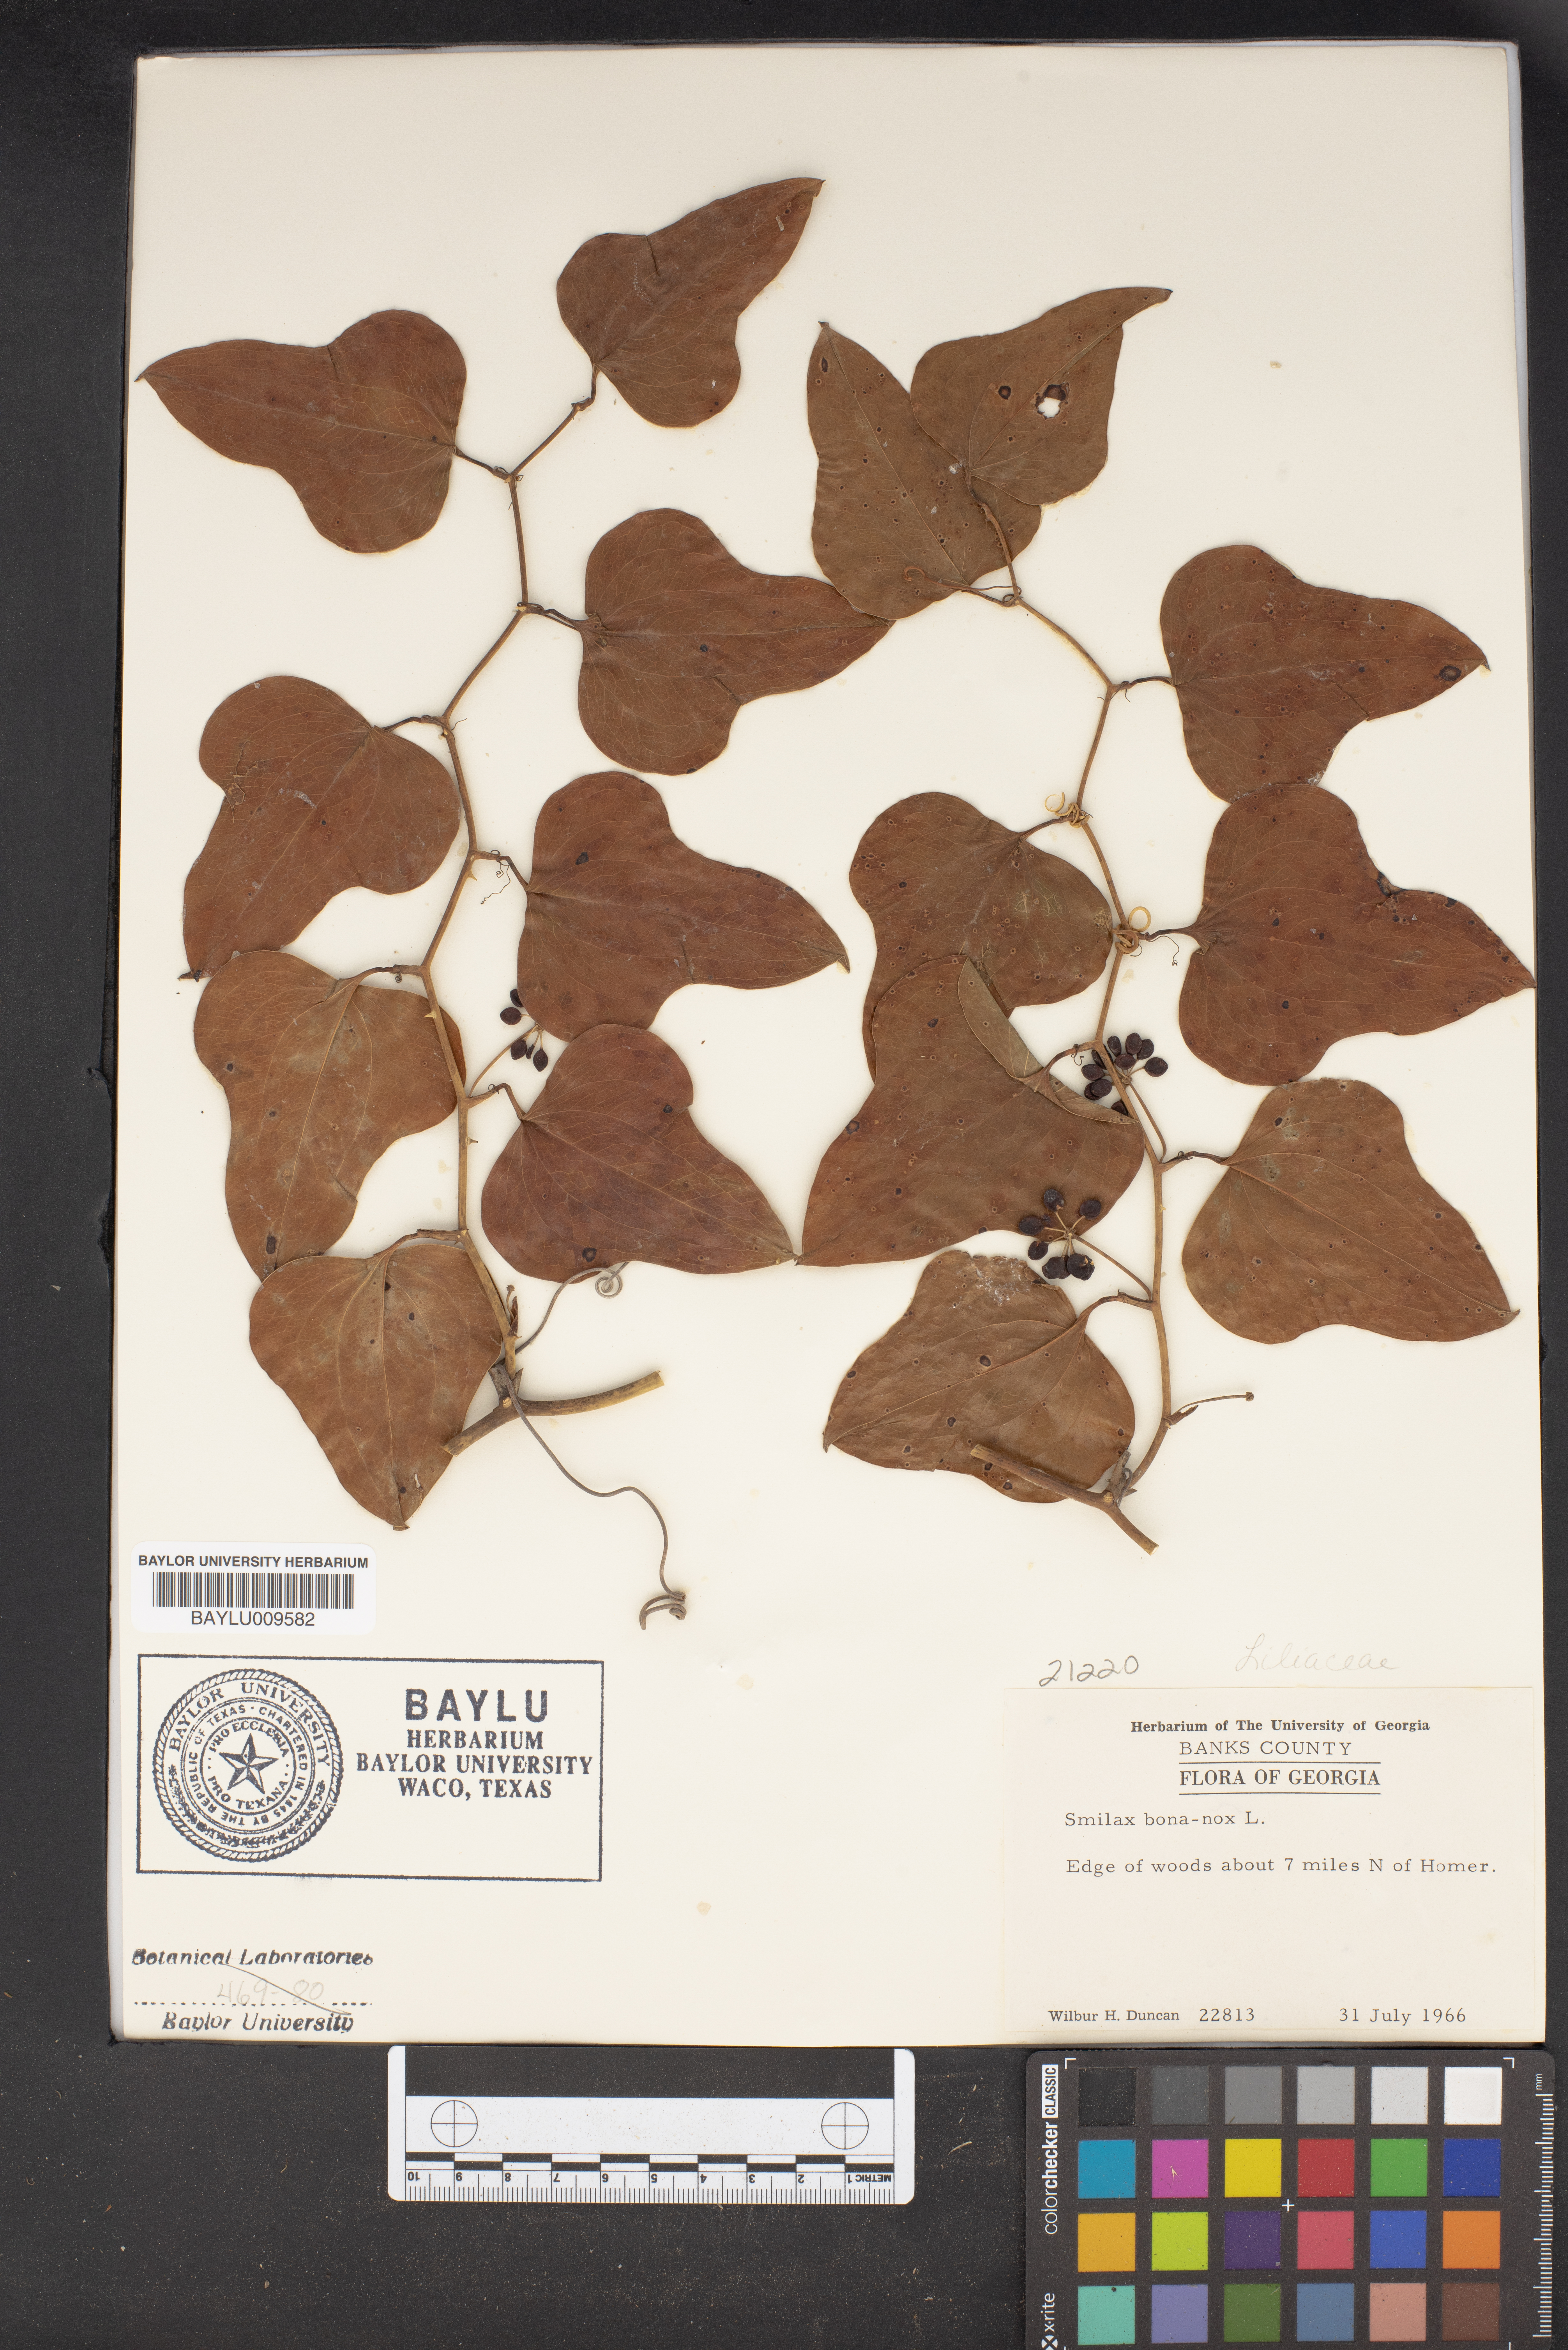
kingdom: Plantae
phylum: Tracheophyta
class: Liliopsida
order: Liliales
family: Smilacaceae
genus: Smilax
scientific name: Smilax bona-nox
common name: Catbrier
